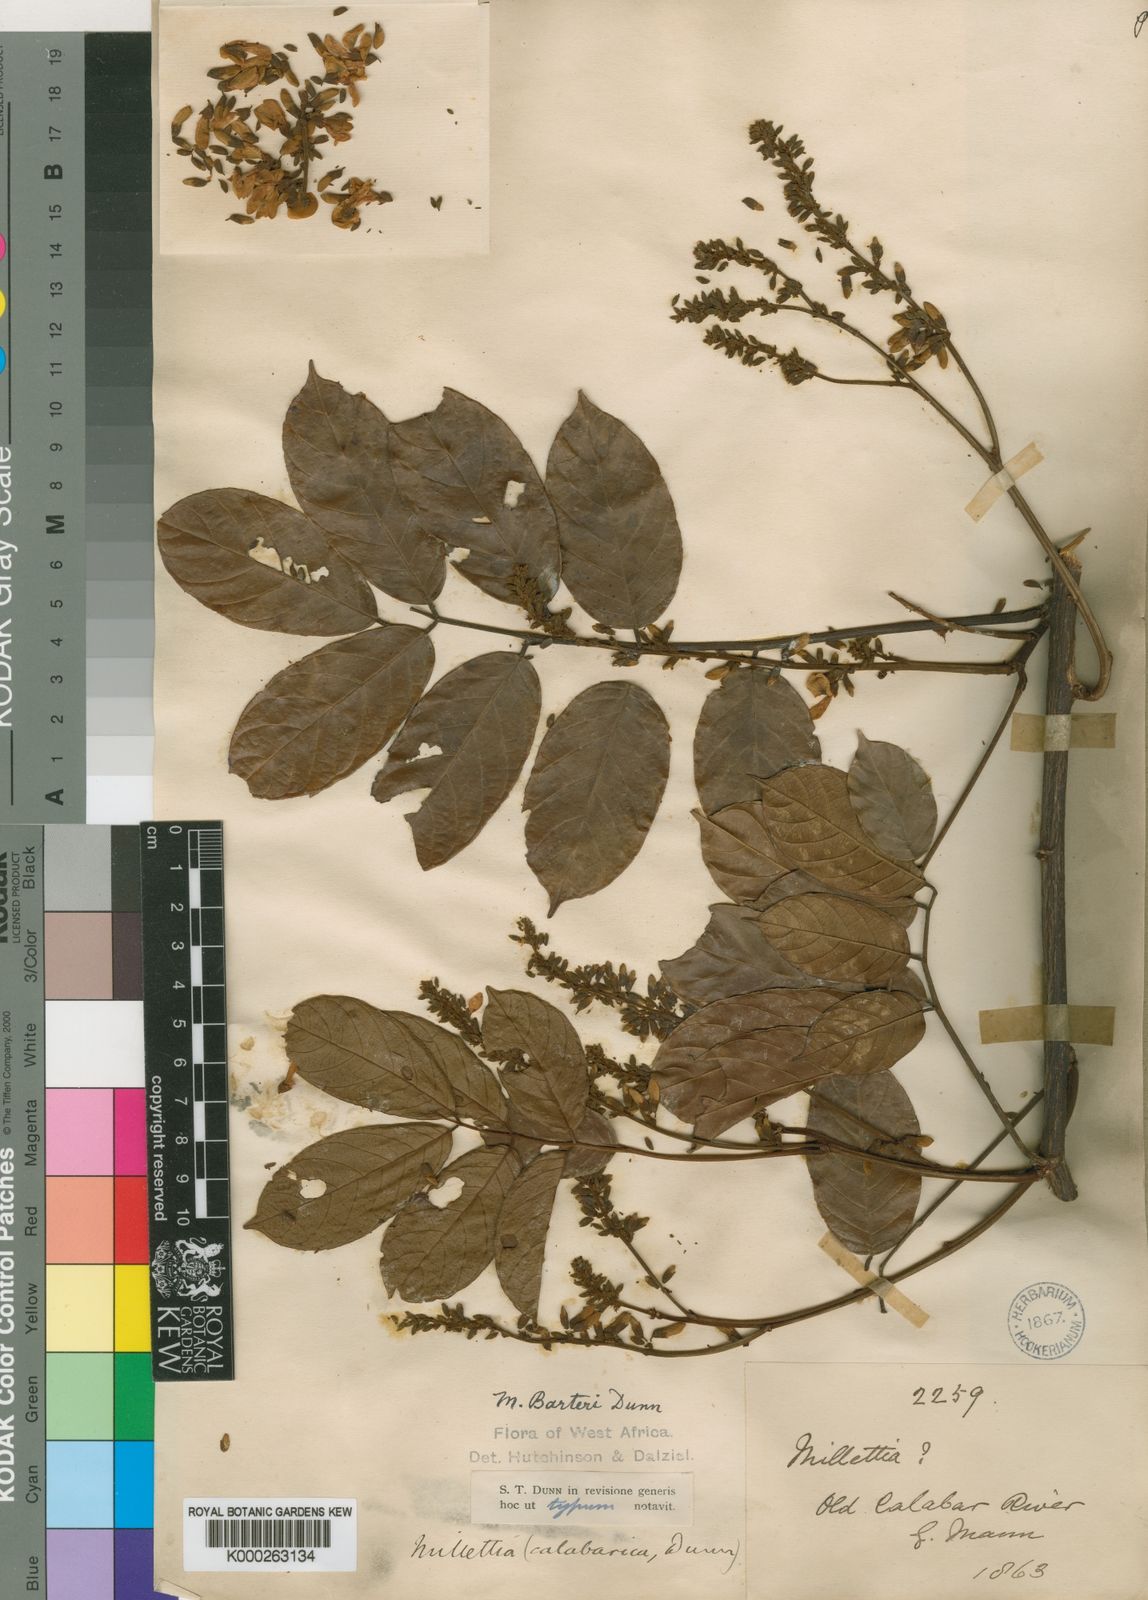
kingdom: Plantae
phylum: Tracheophyta
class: Magnoliopsida
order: Fabales
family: Fabaceae
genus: Millettia
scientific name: Millettia barteri
